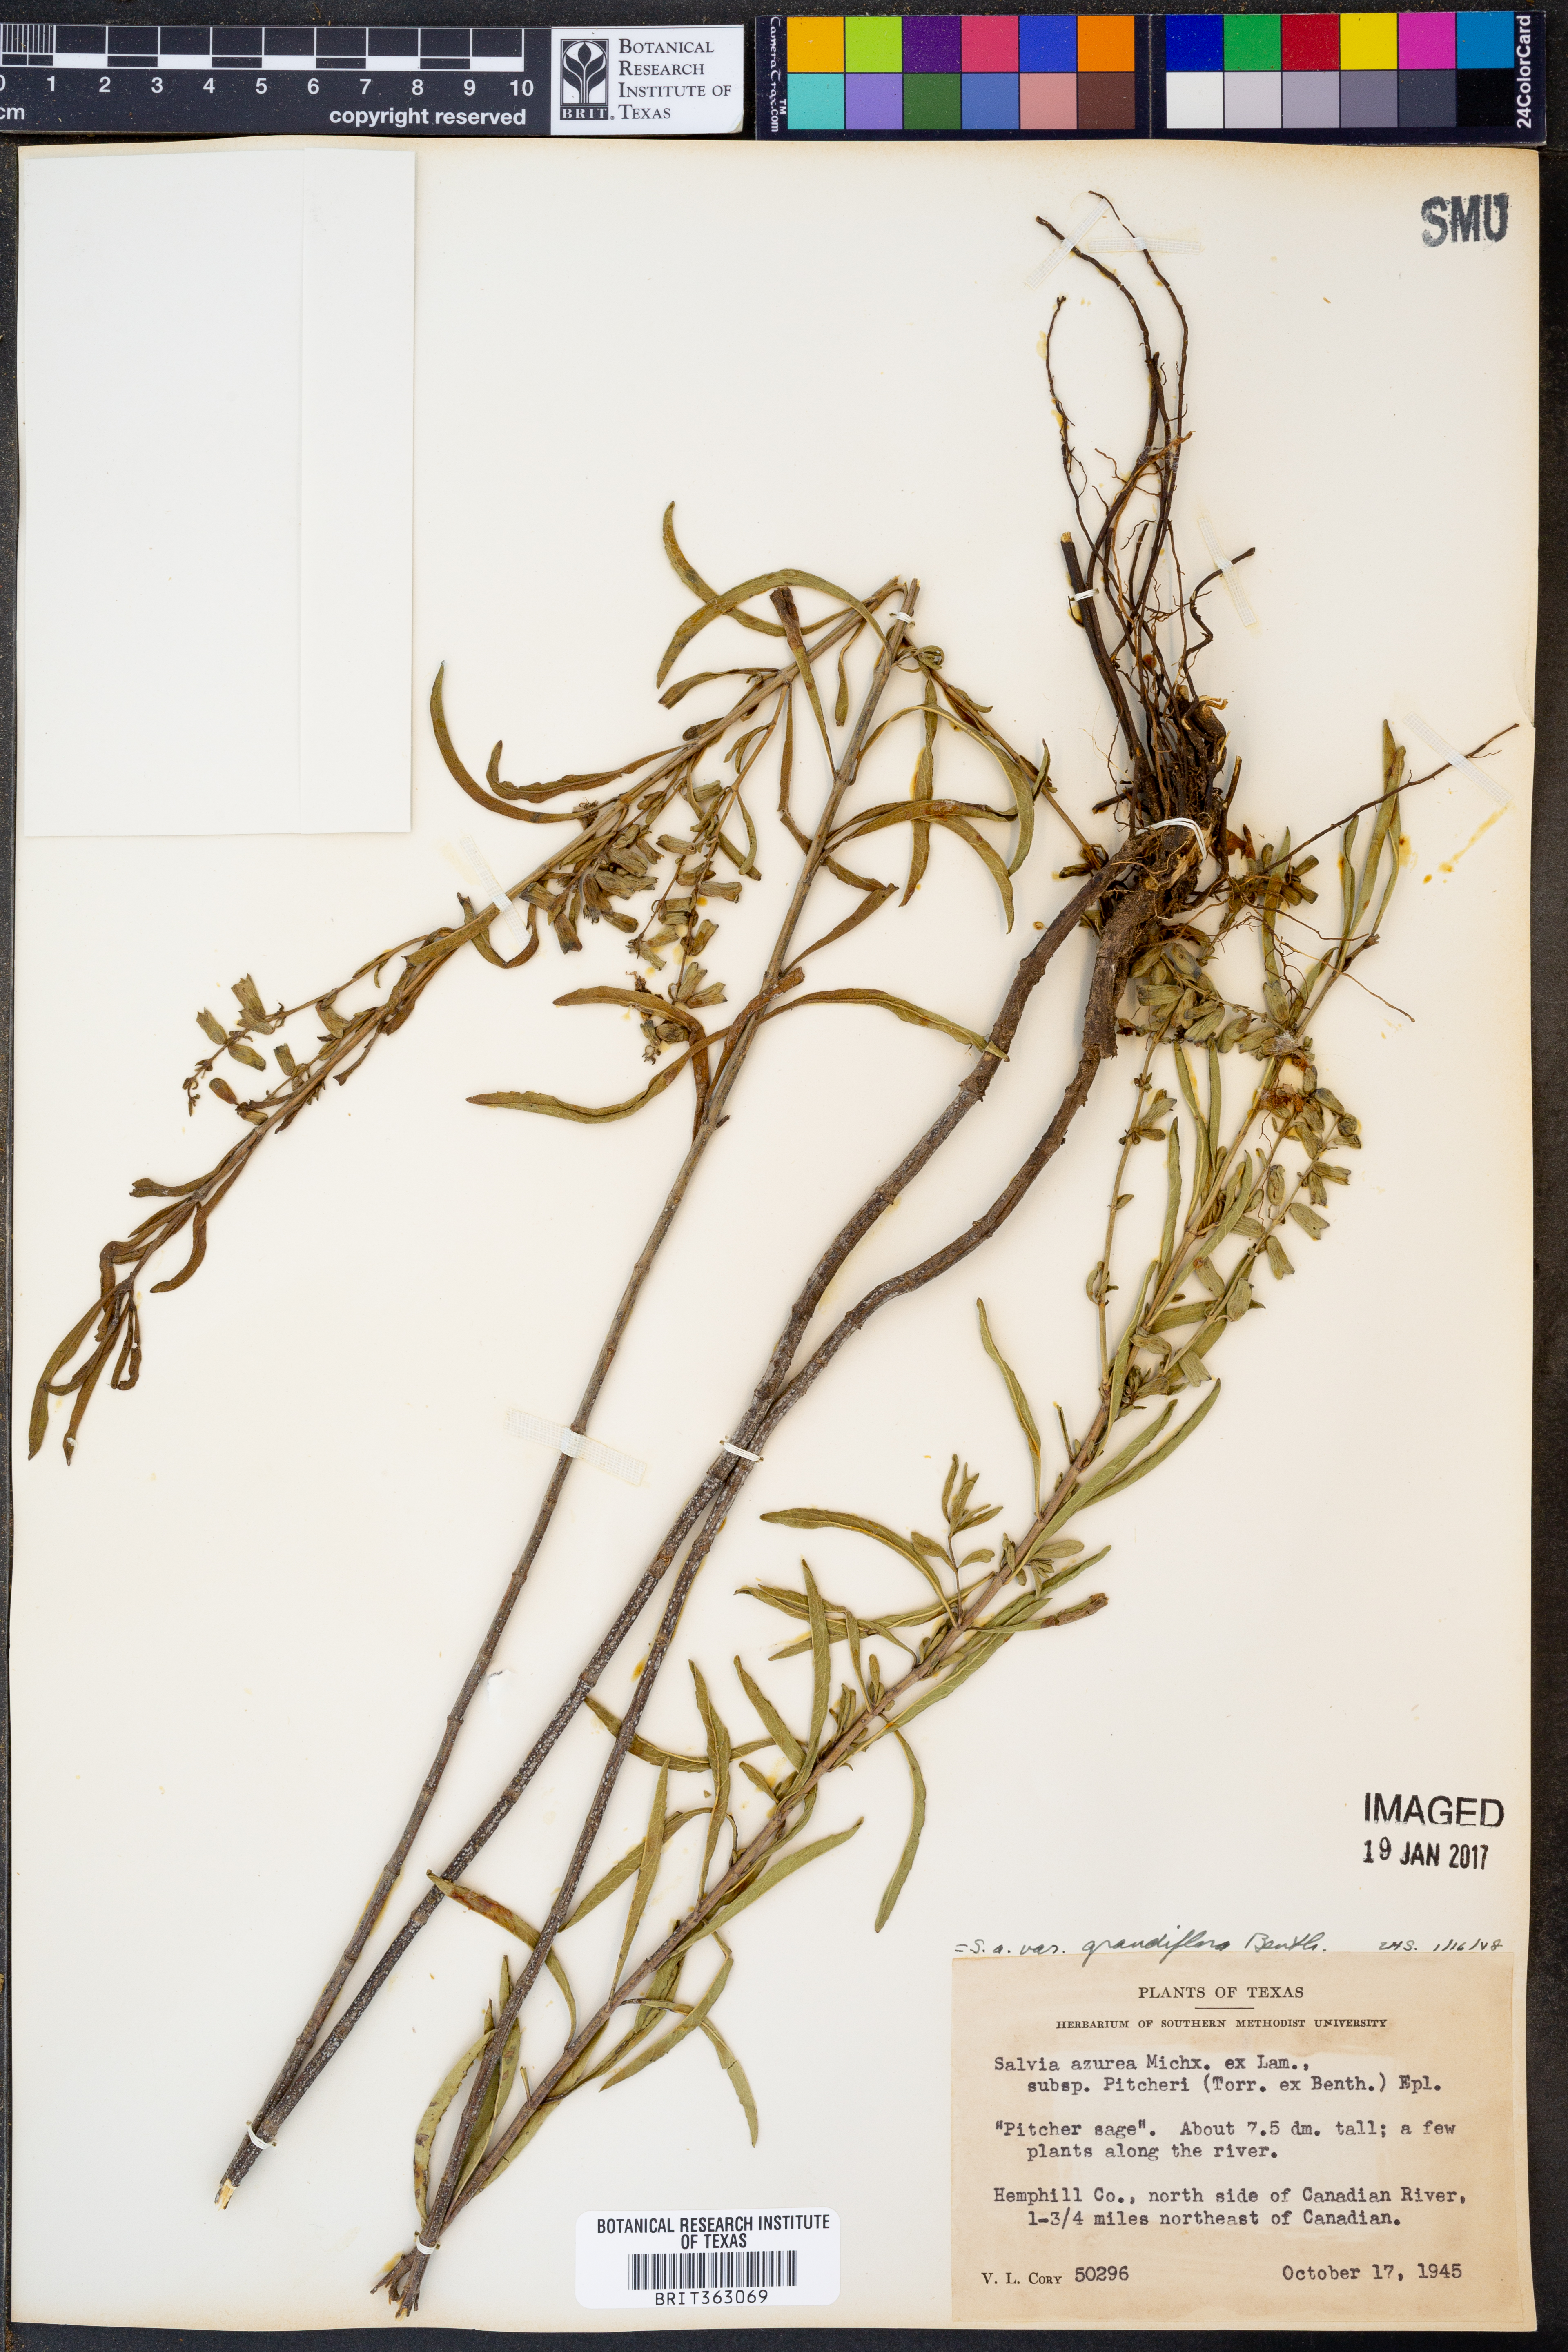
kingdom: Plantae
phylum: Tracheophyta
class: Magnoliopsida
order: Lamiales
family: Lamiaceae
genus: Salvia
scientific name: Salvia azurea
